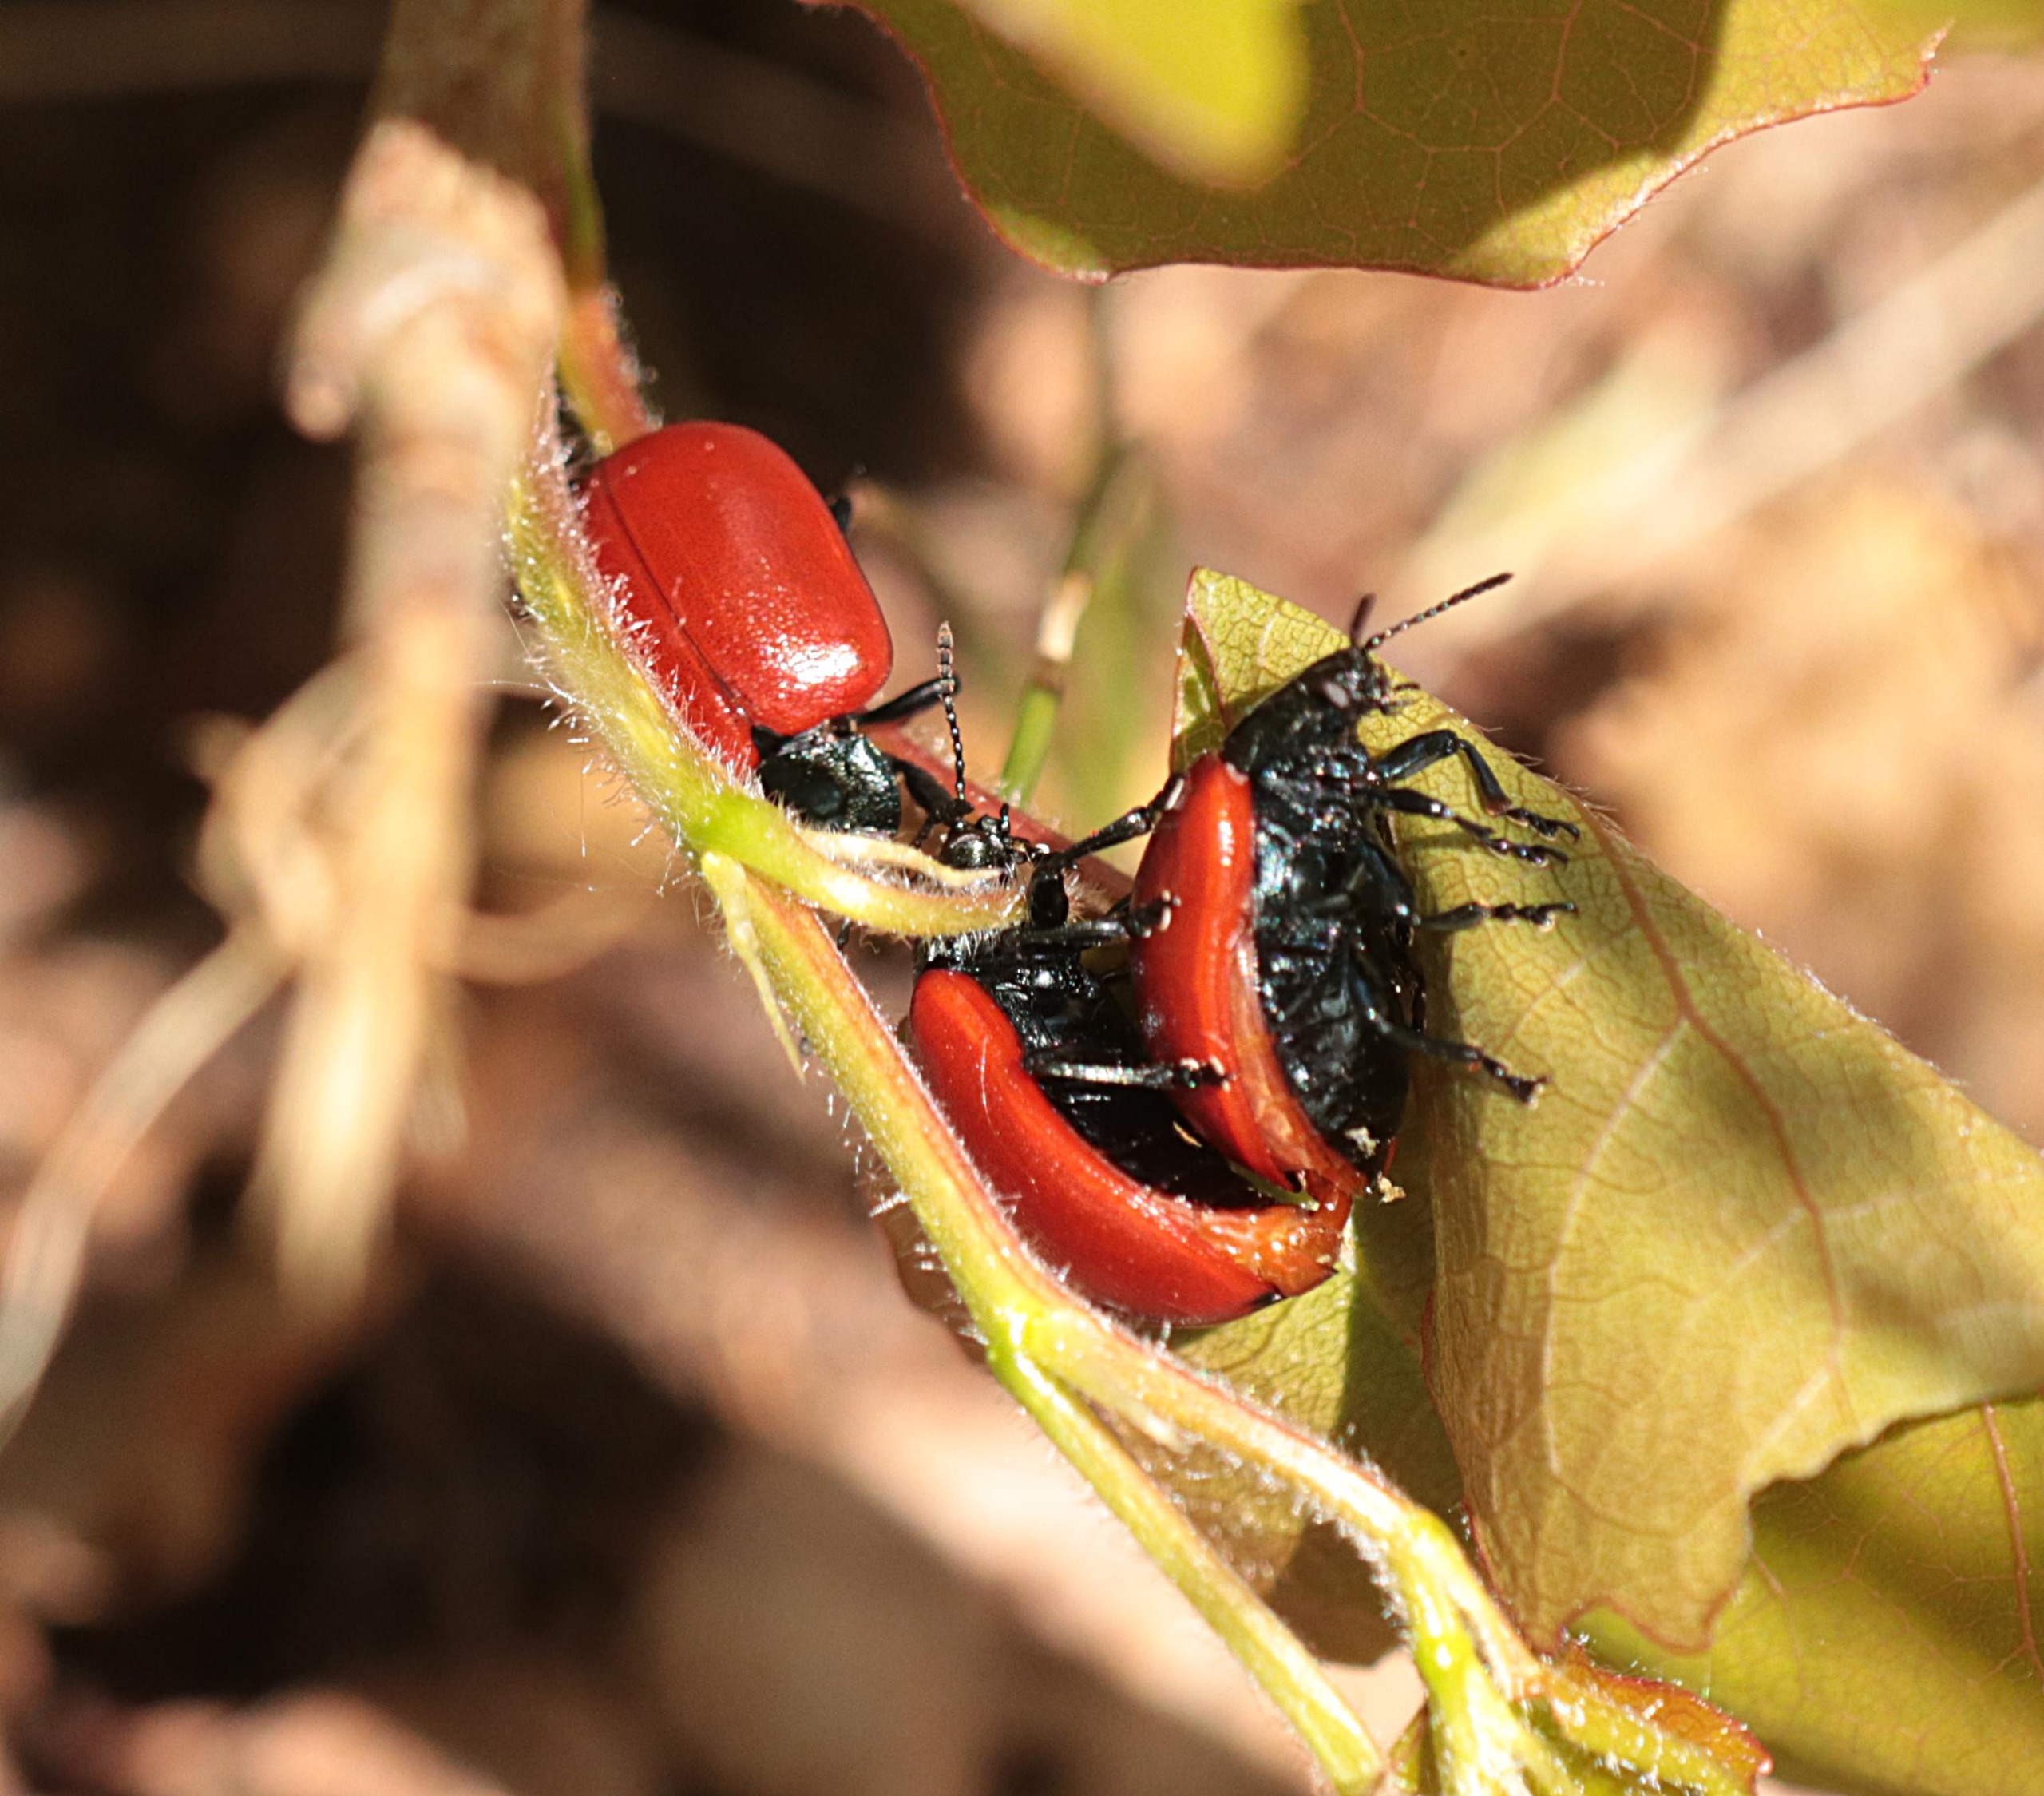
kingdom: Animalia
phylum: Arthropoda
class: Insecta
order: Coleoptera
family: Chrysomelidae
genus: Chrysomela
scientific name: Chrysomela populi
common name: Poppelbladbille
